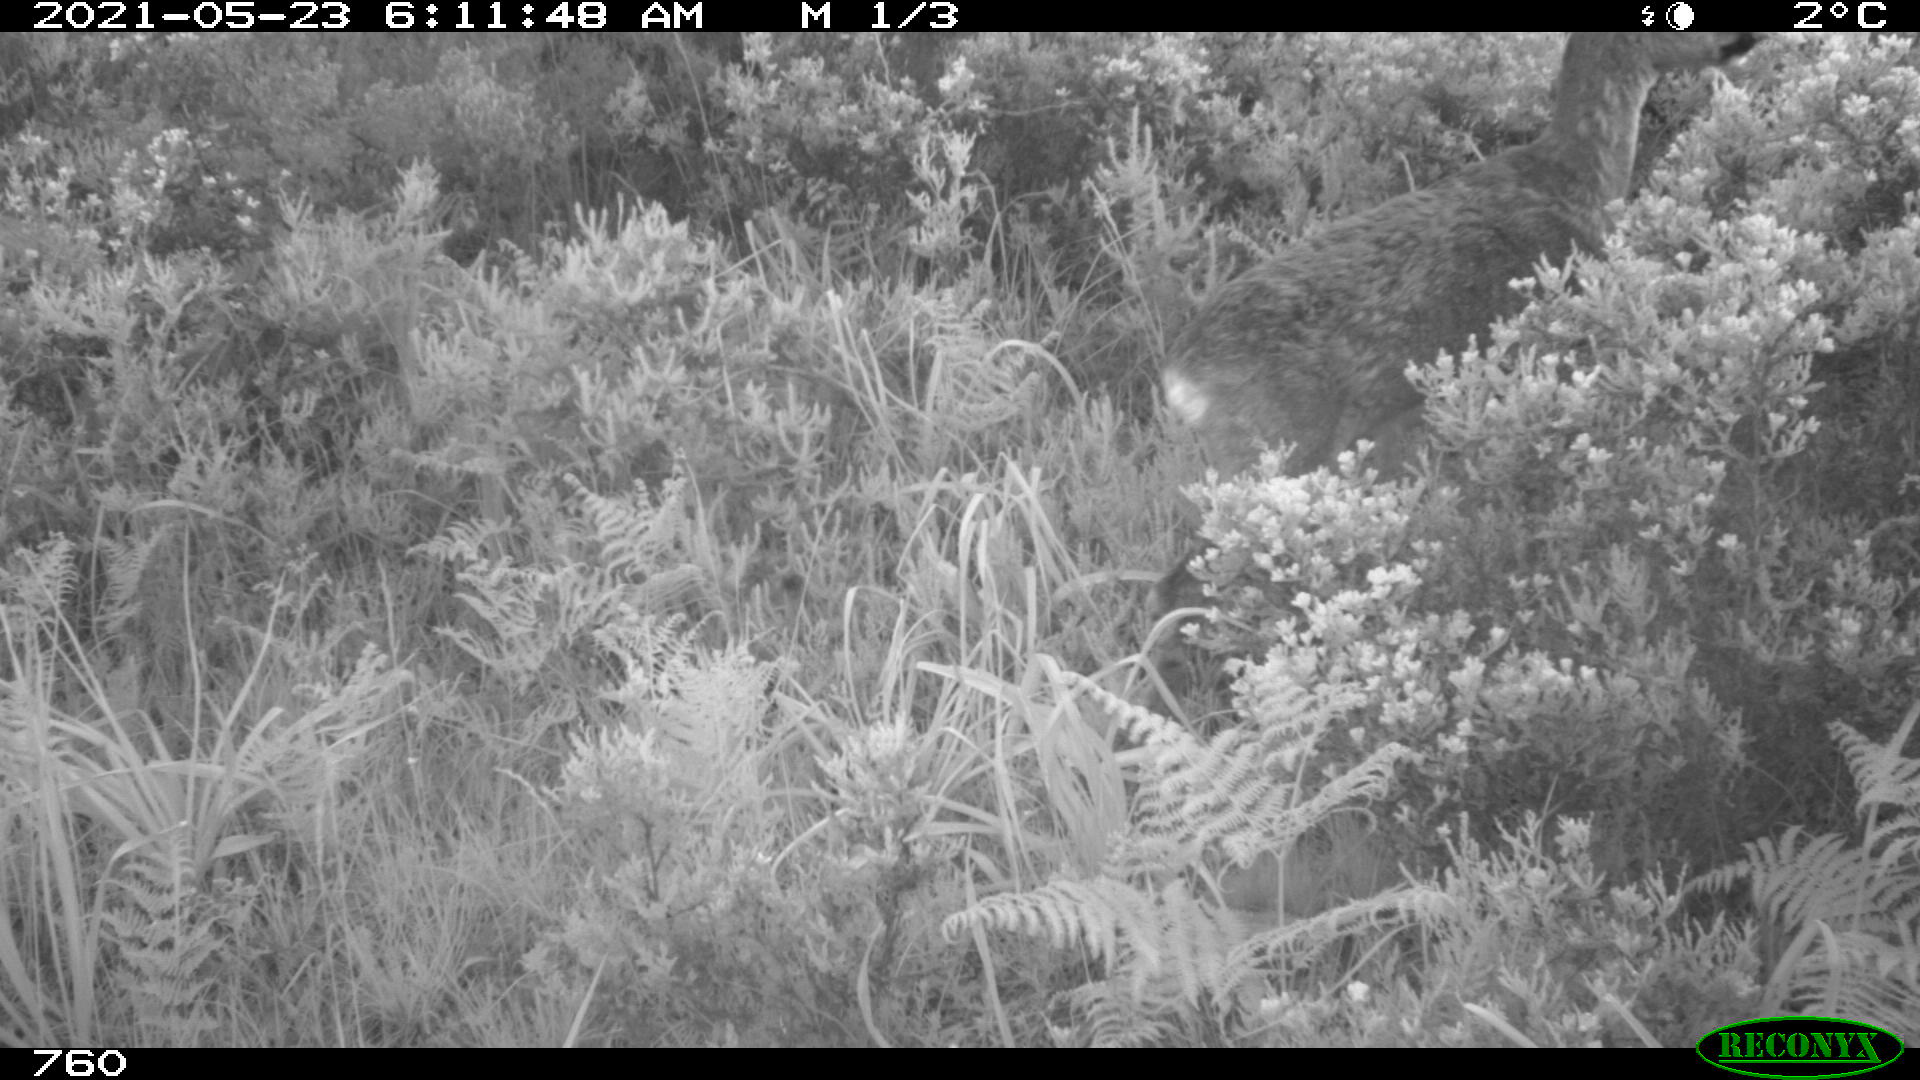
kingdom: Animalia
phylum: Chordata
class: Mammalia
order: Artiodactyla
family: Cervidae
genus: Capreolus
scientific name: Capreolus capreolus
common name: Western roe deer
